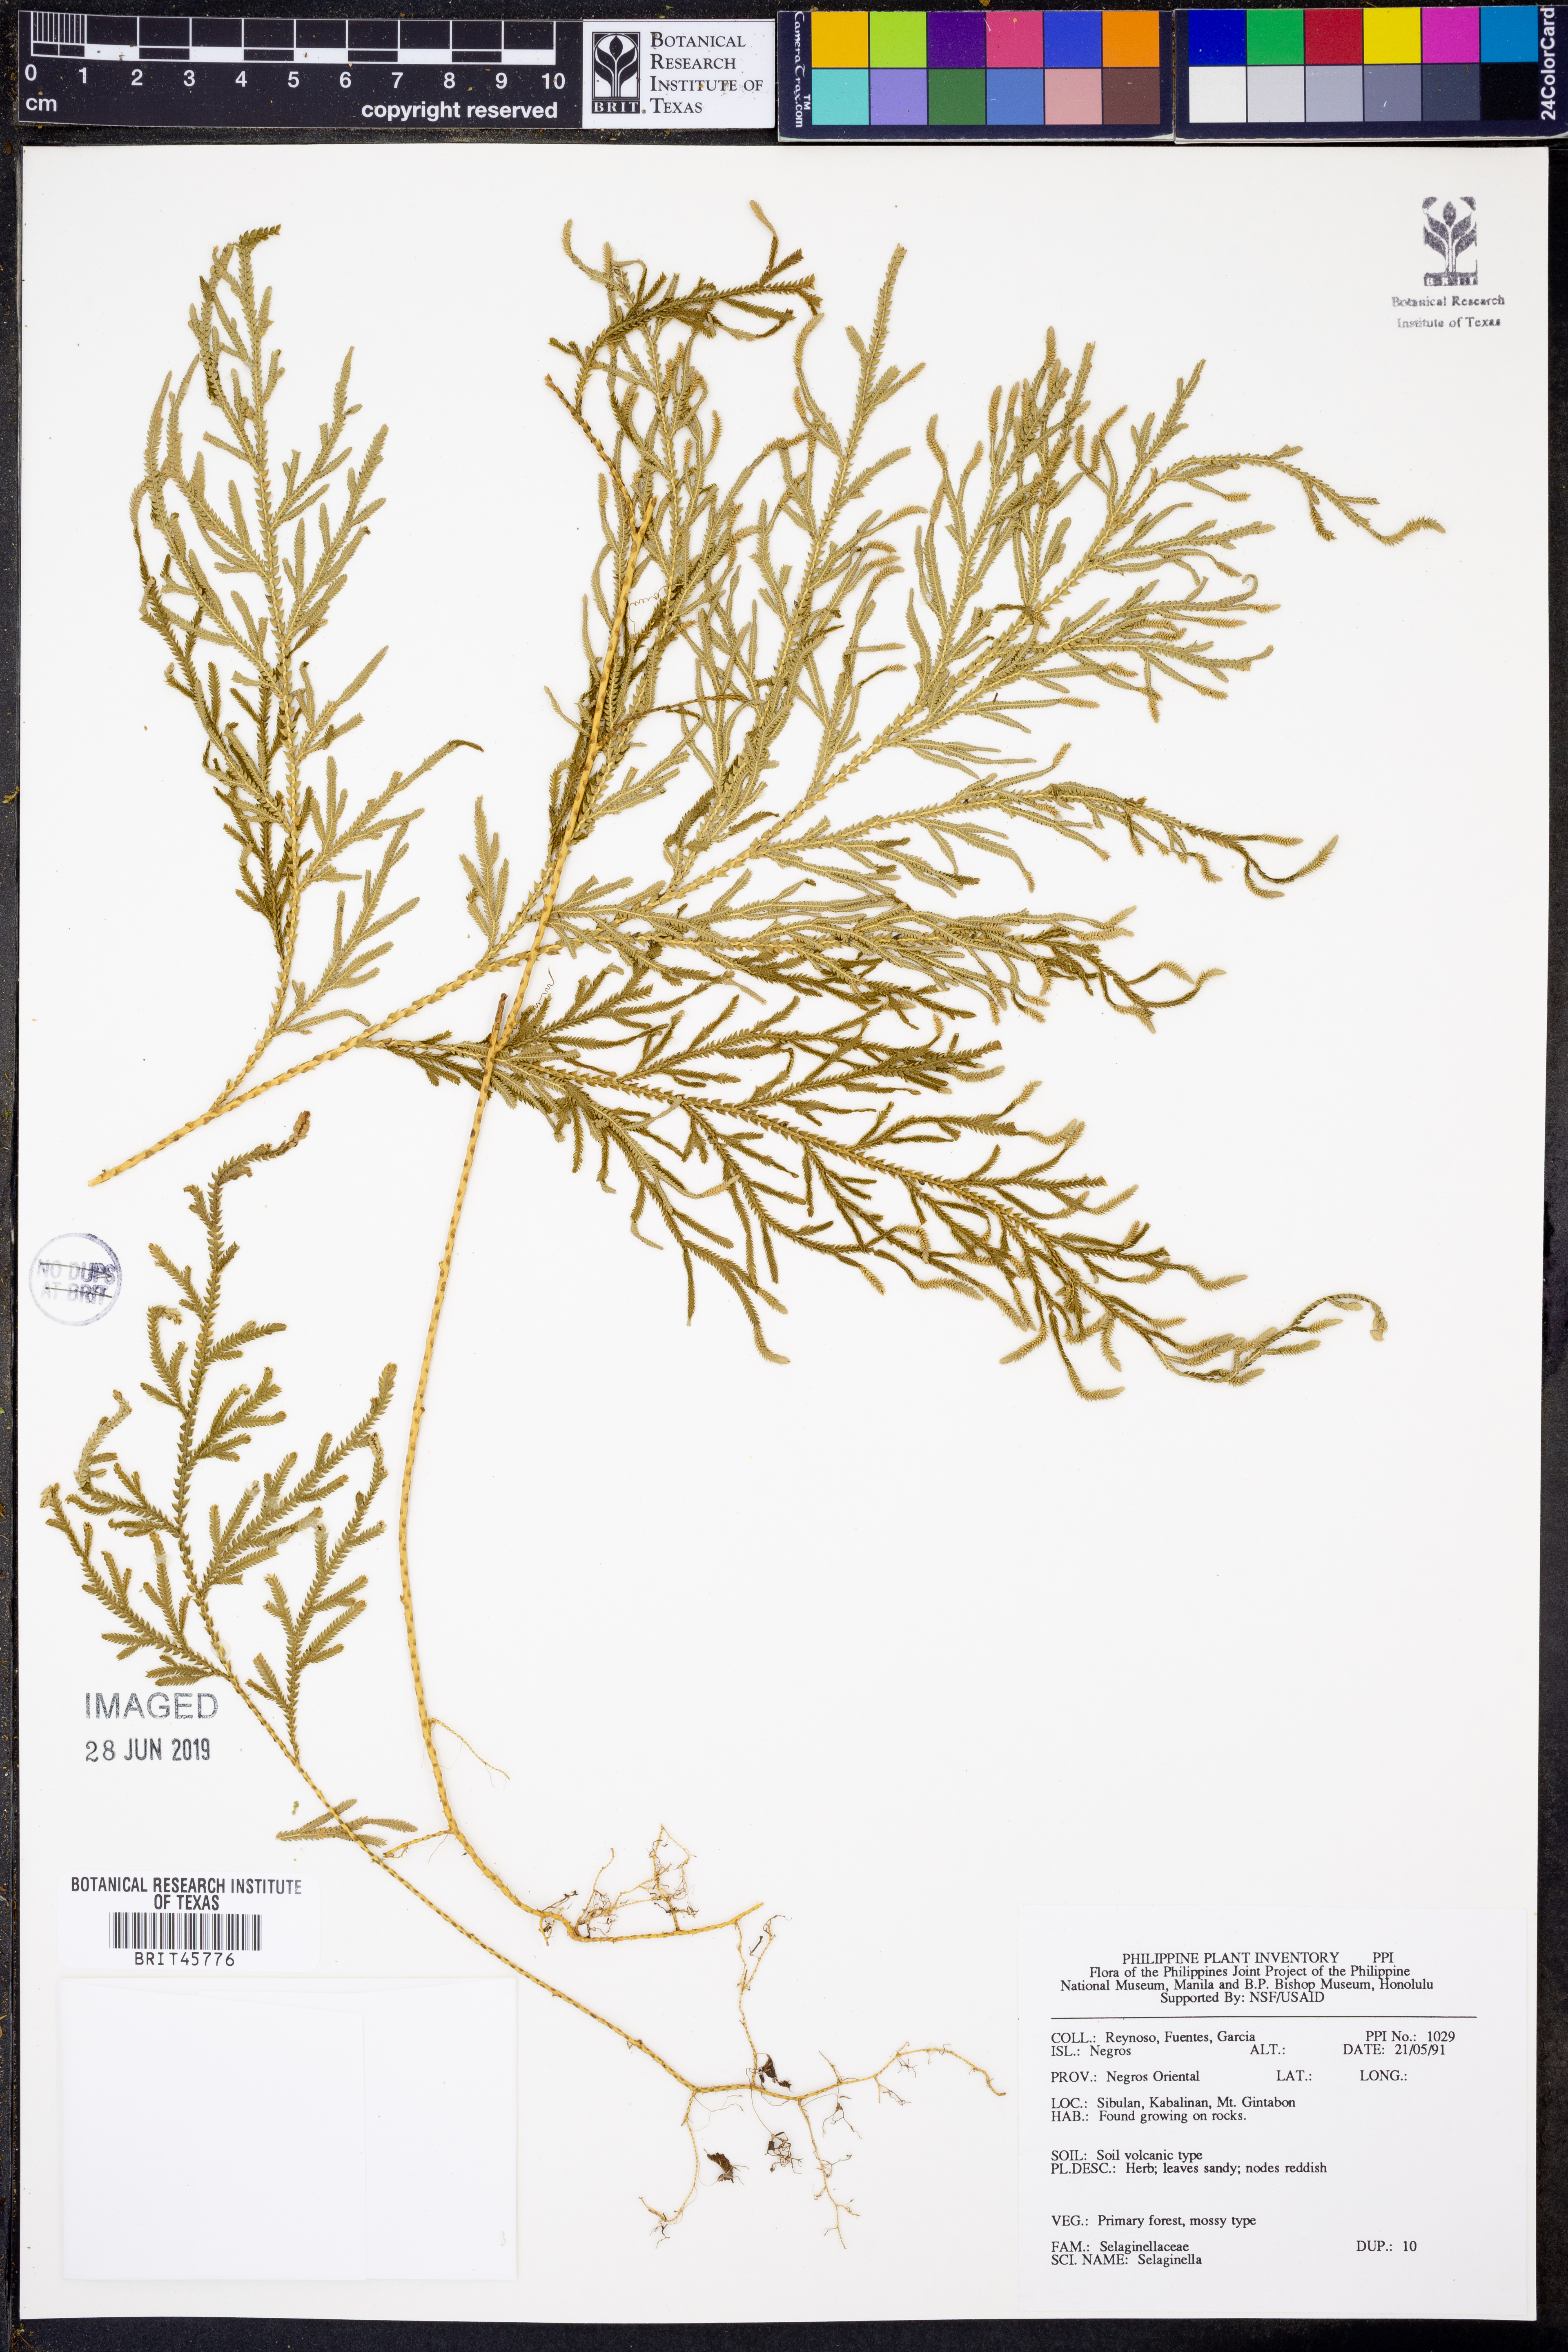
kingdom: Plantae
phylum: Tracheophyta
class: Lycopodiopsida
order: Selaginellales
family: Selaginellaceae
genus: Selaginella
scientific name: Selaginella
